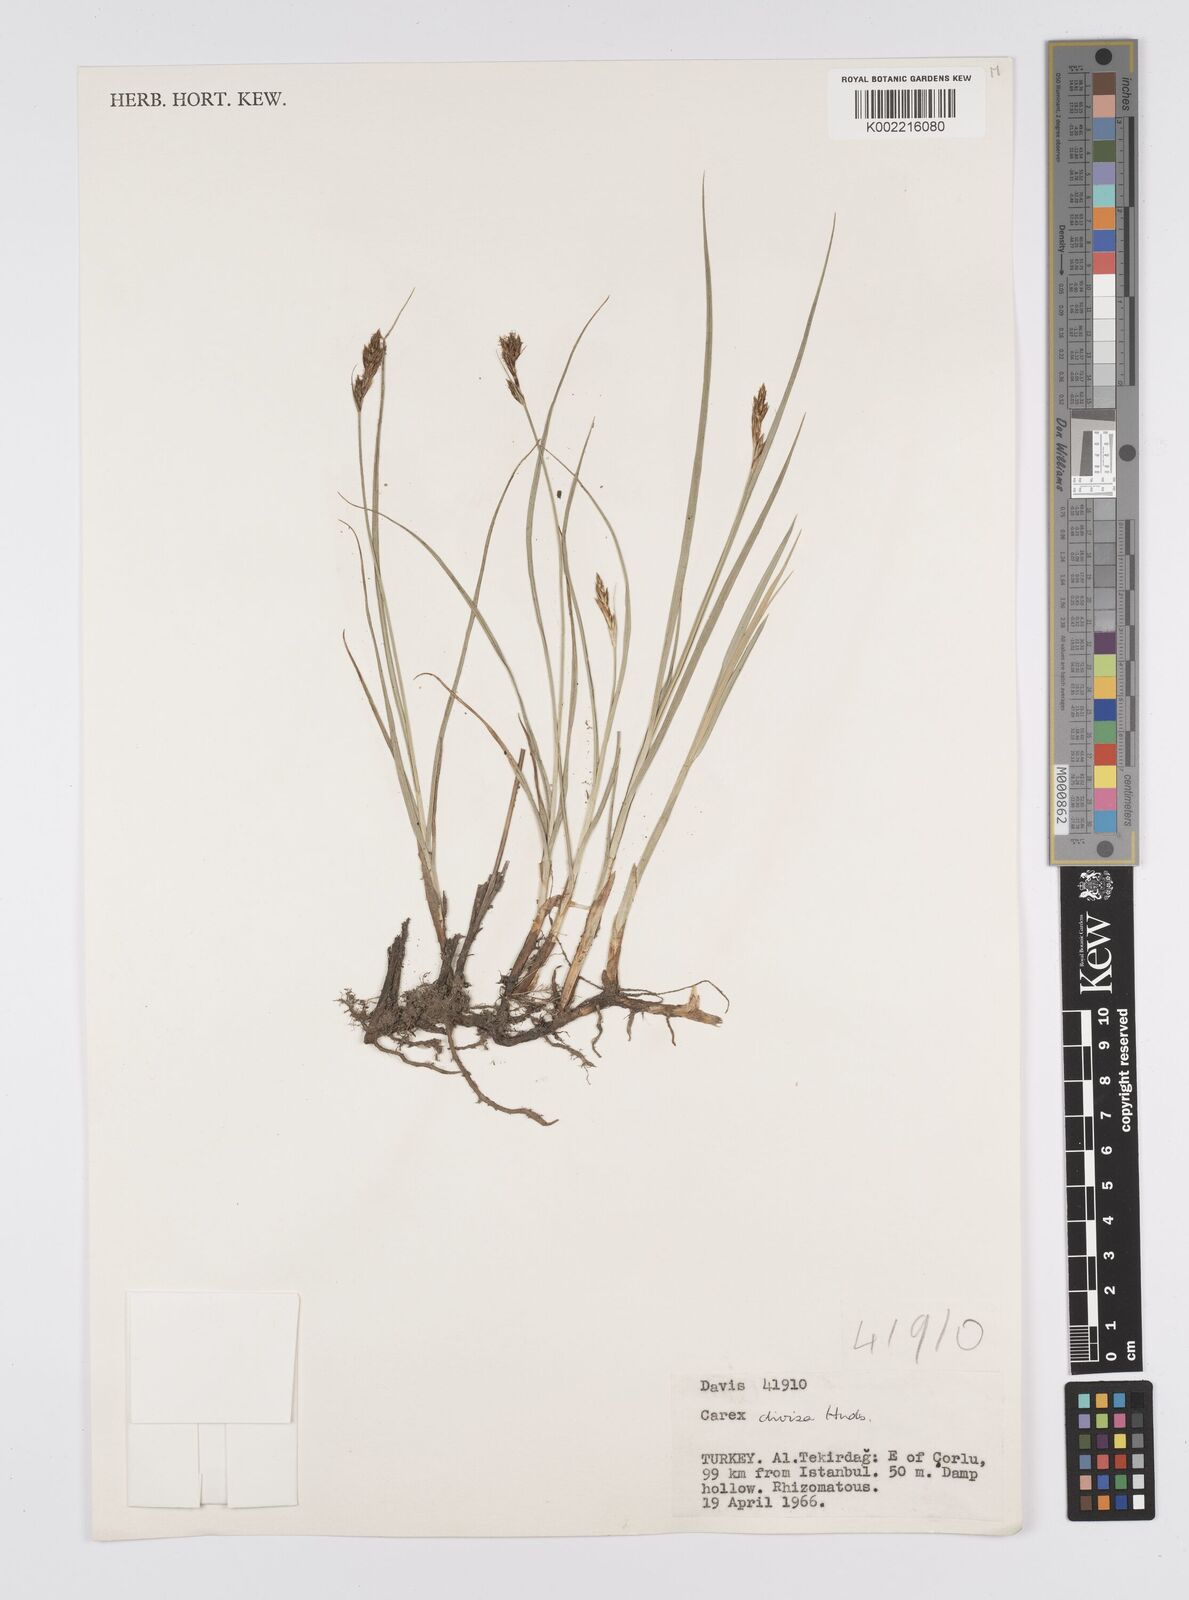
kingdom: Plantae
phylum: Tracheophyta
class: Liliopsida
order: Poales
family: Cyperaceae
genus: Carex
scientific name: Carex divisa
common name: Divided sedge
